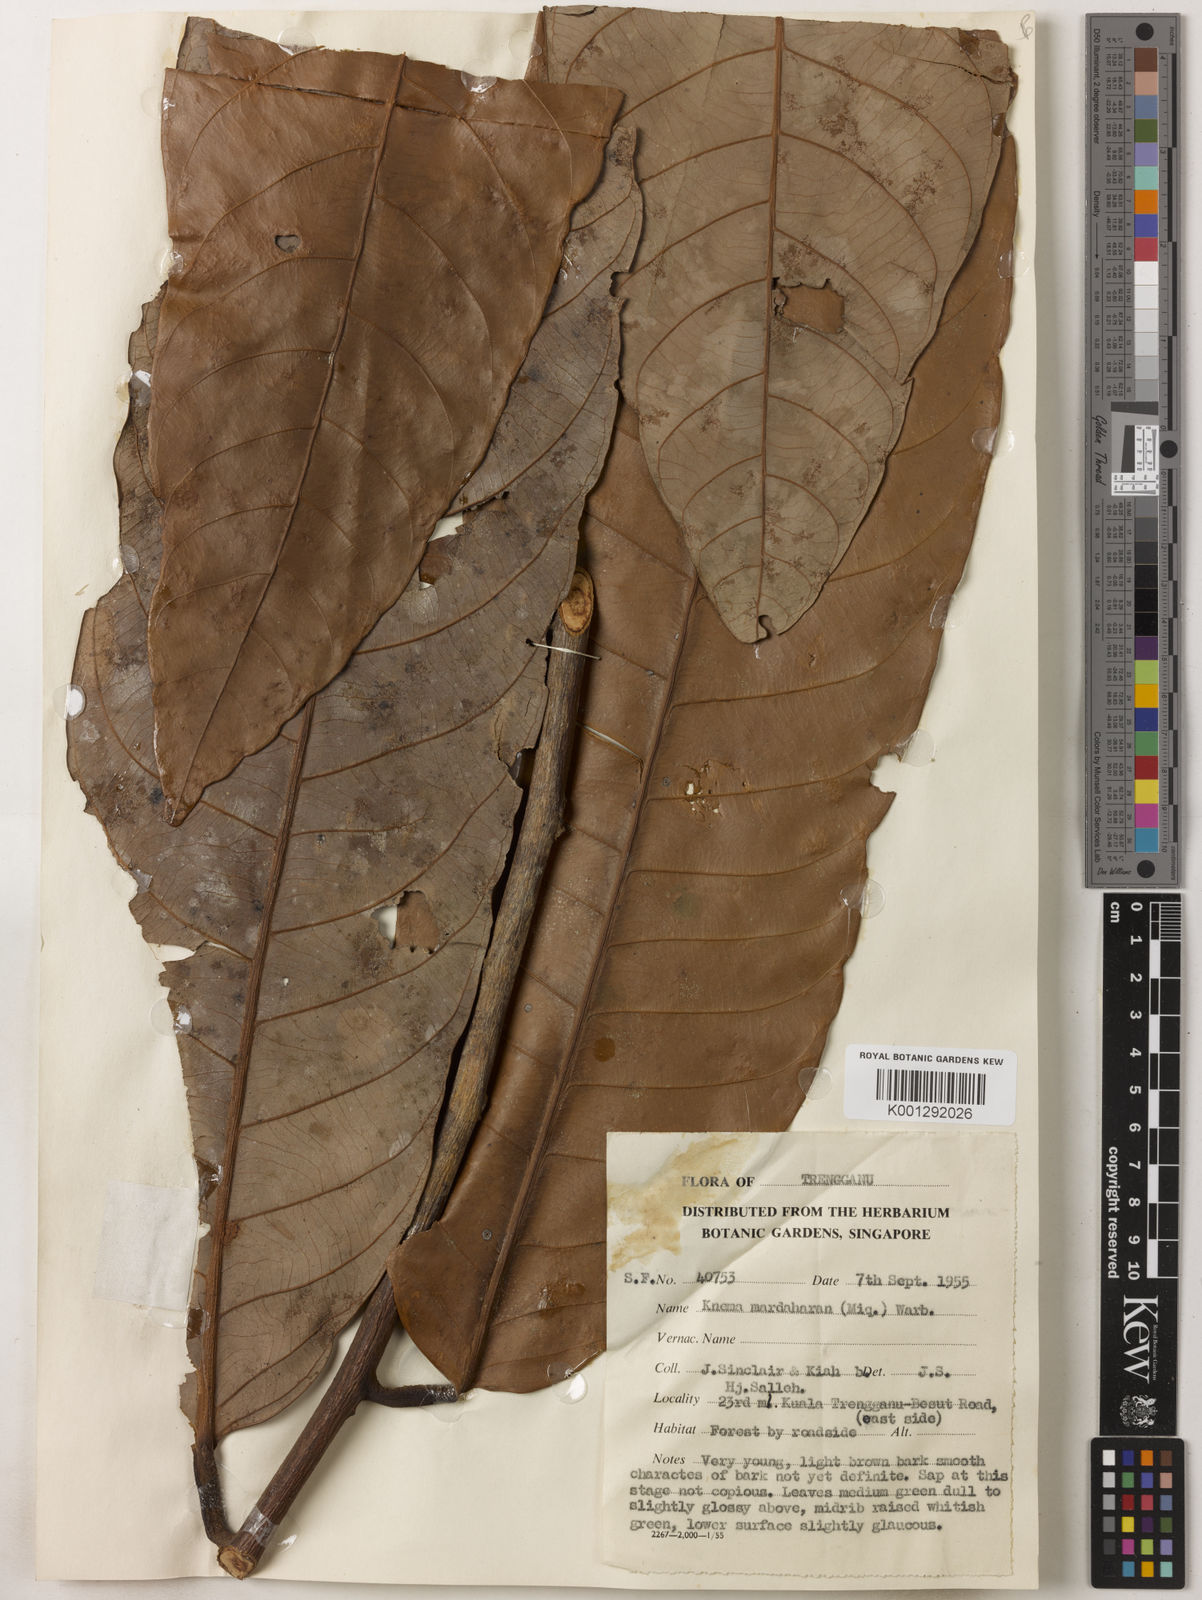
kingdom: Plantae
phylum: Tracheophyta
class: Magnoliopsida
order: Magnoliales
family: Myristicaceae
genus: Knema
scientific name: Knema mandaharan
